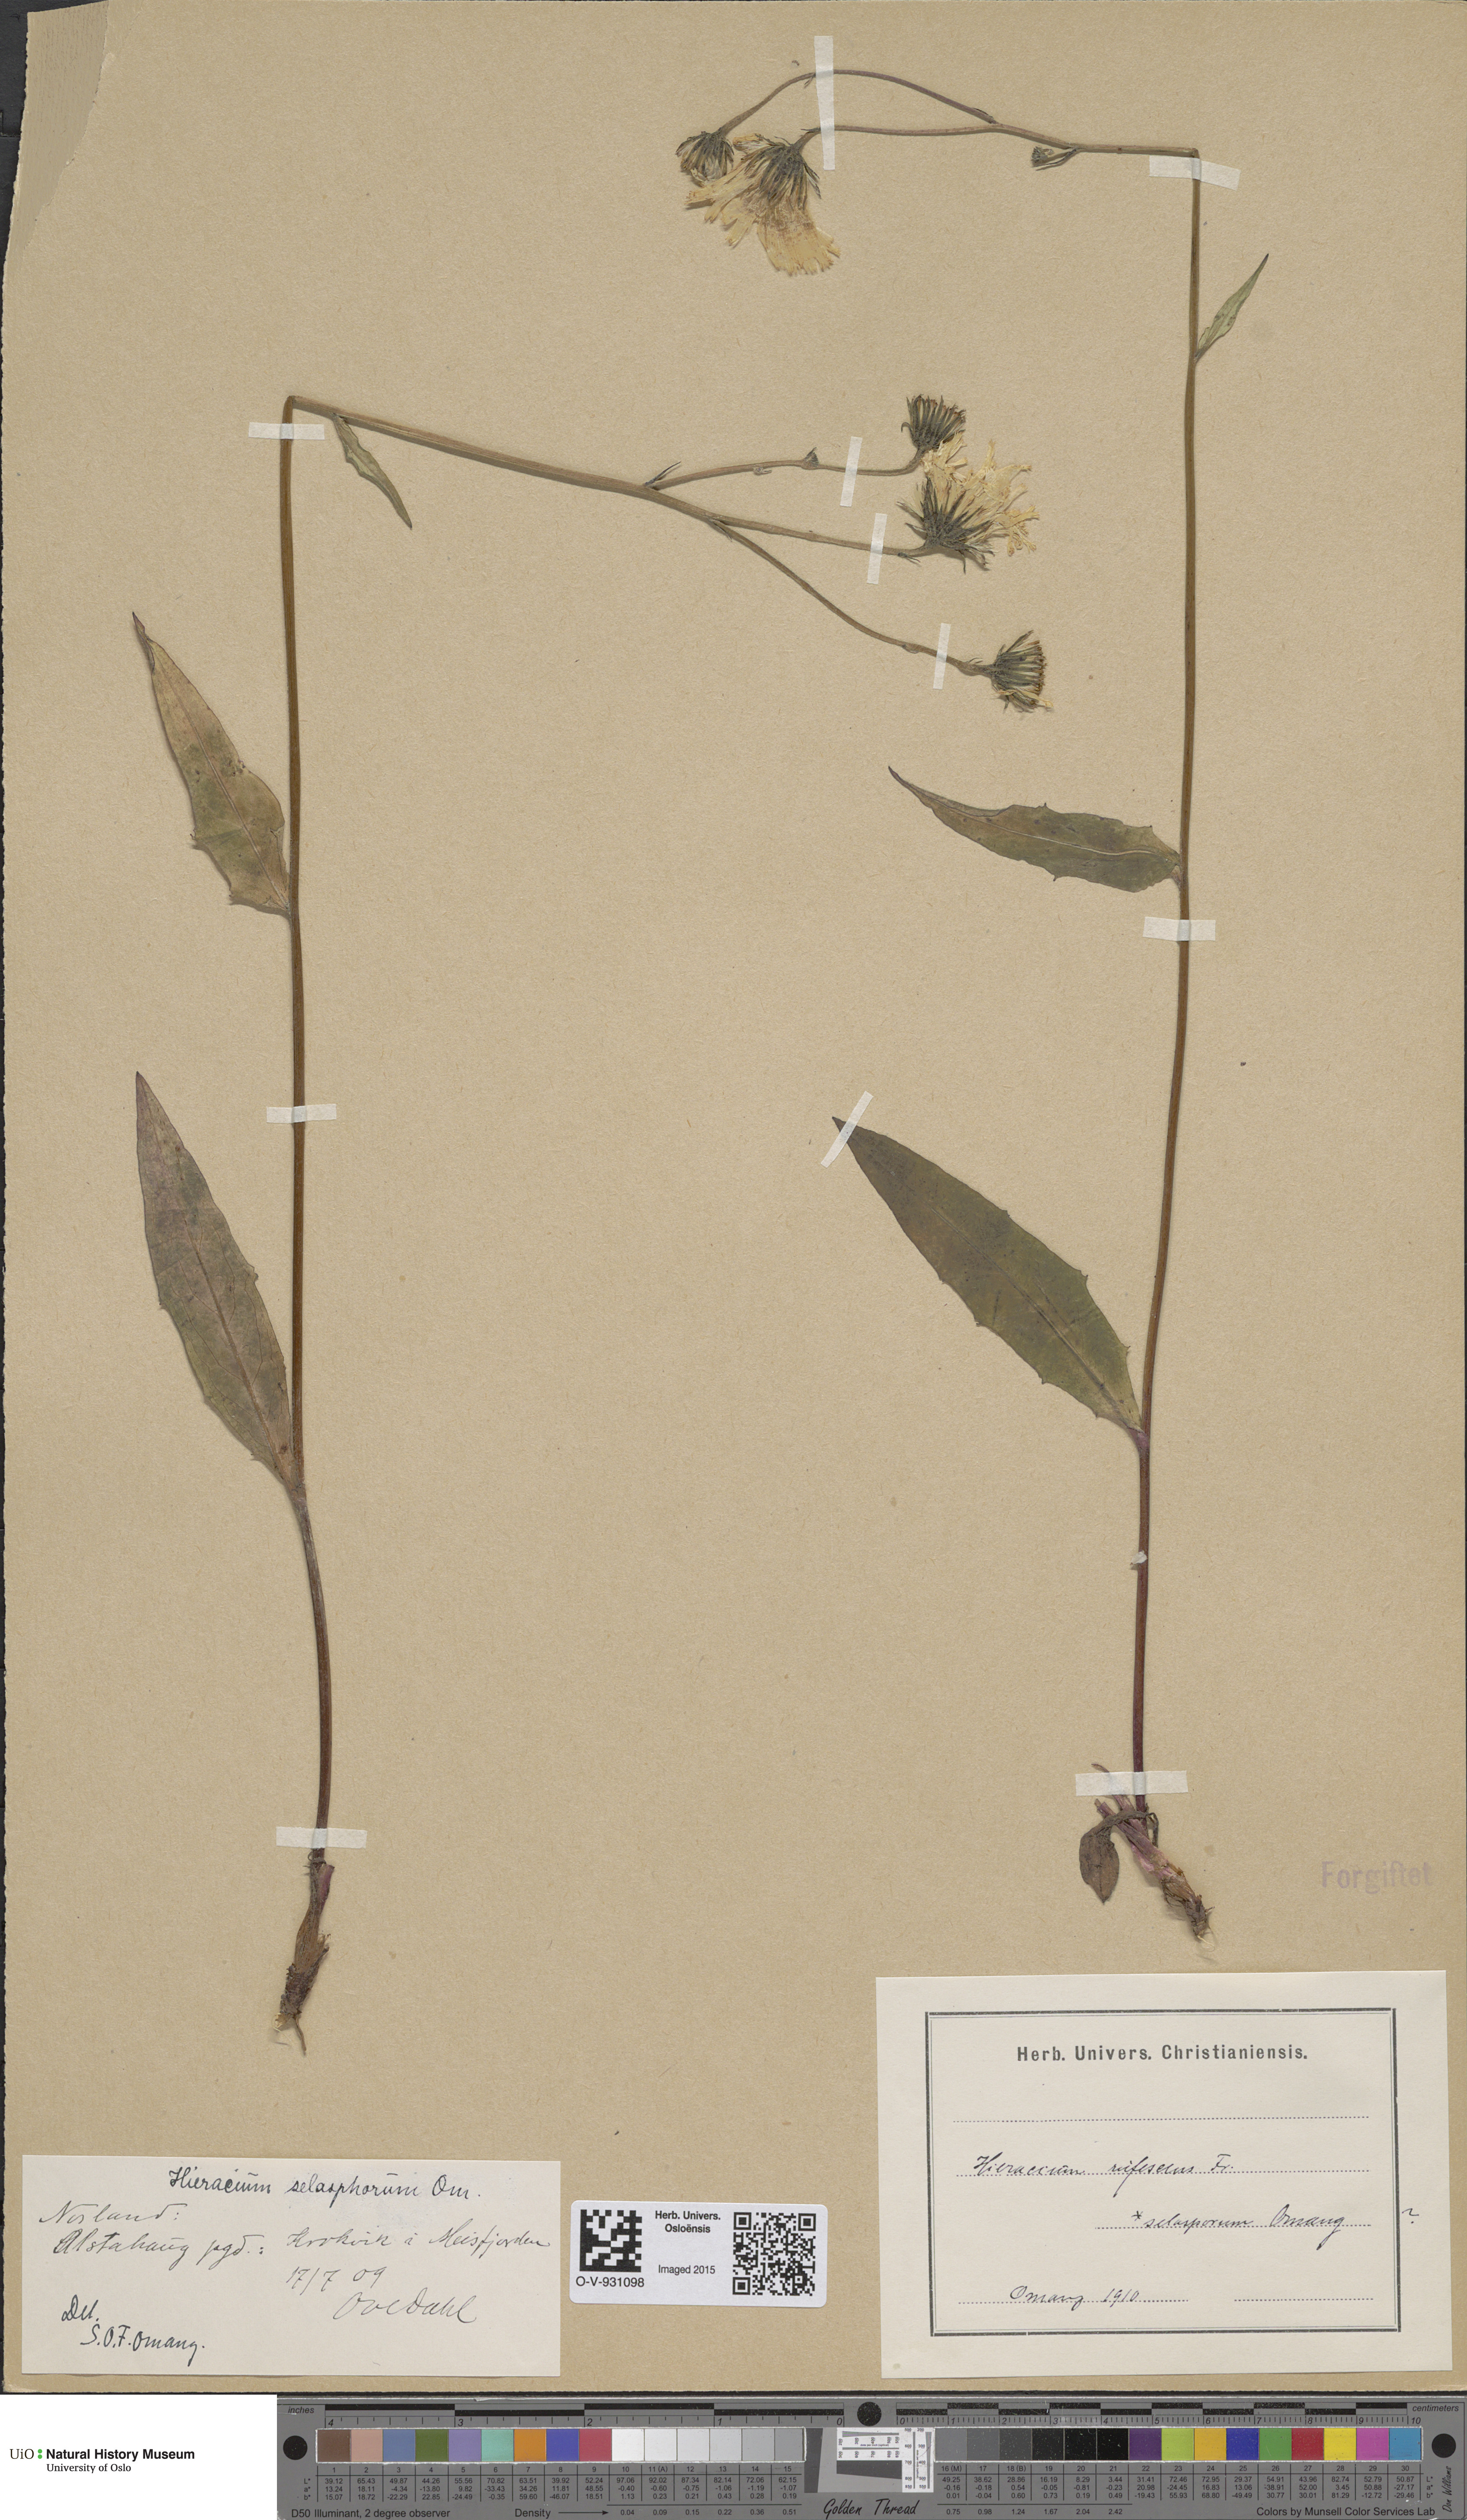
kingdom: Plantae
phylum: Tracheophyta
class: Magnoliopsida
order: Asterales
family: Asteraceae
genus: Hieracium
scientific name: Hieracium
